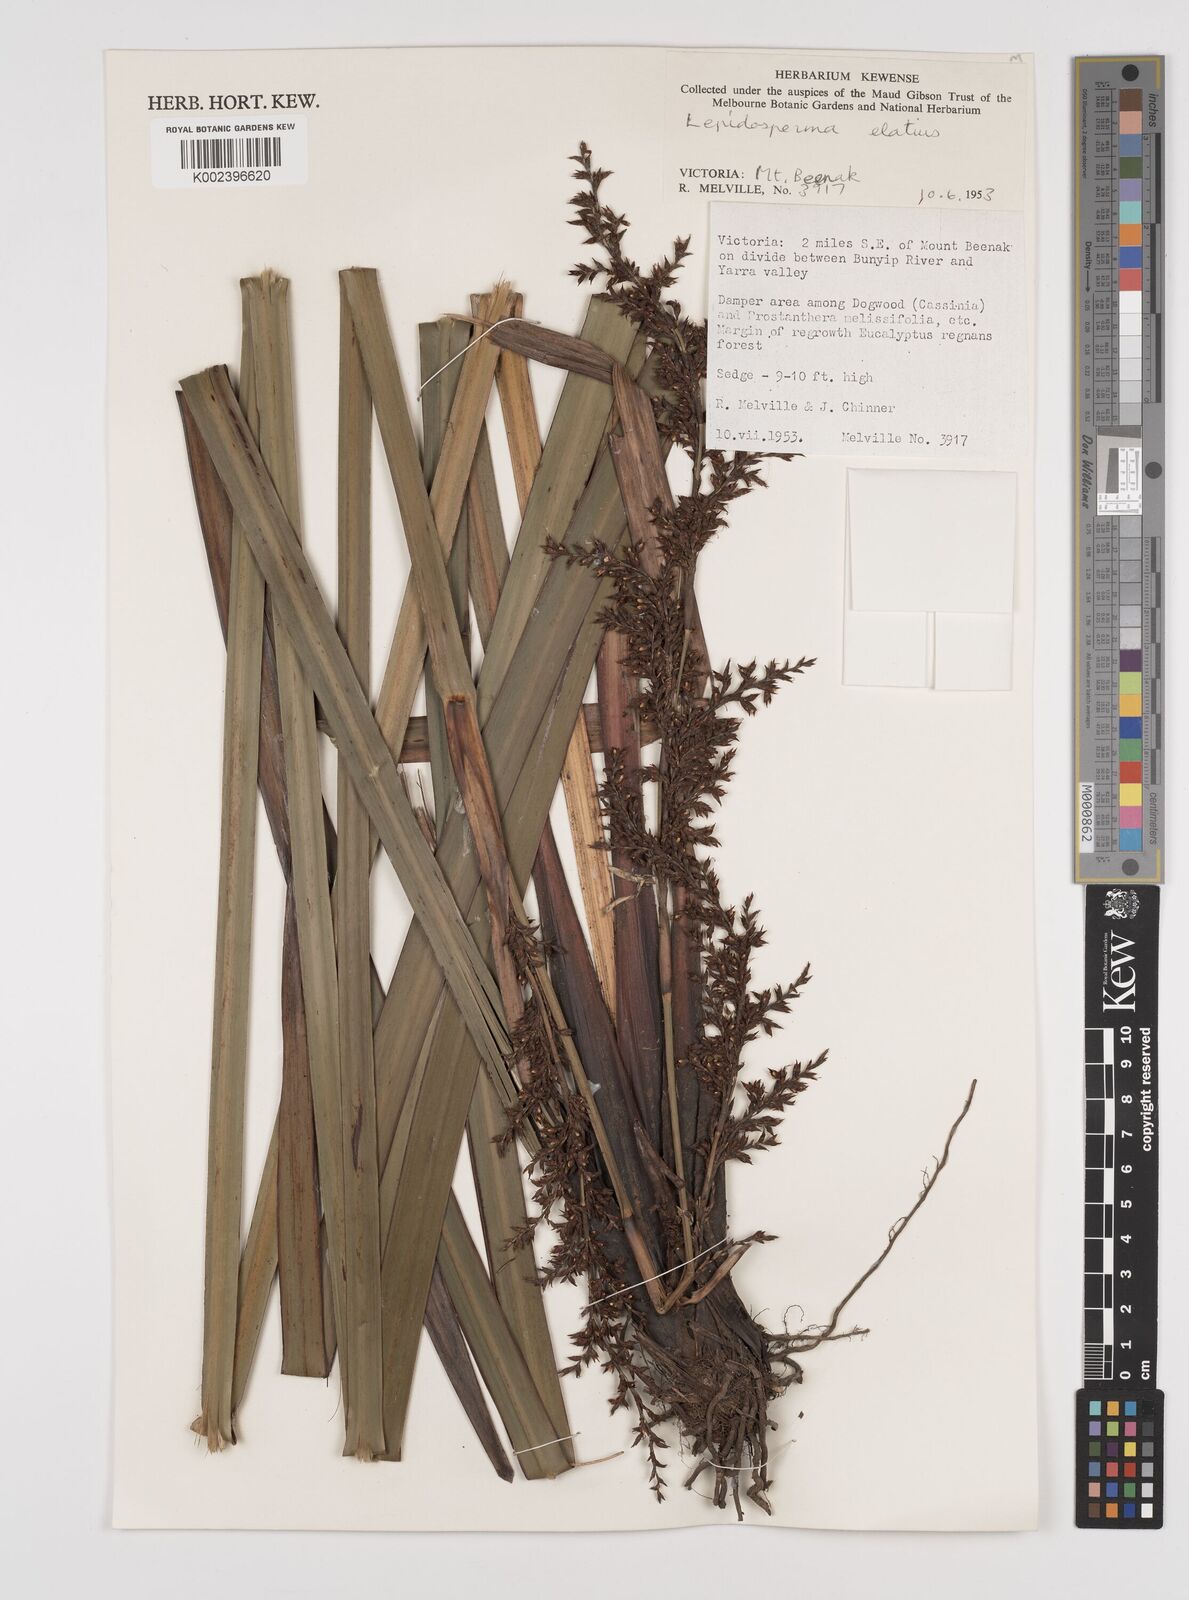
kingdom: Plantae
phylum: Tracheophyta
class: Liliopsida
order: Poales
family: Cyperaceae
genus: Lepidosperma
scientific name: Lepidosperma elatius
